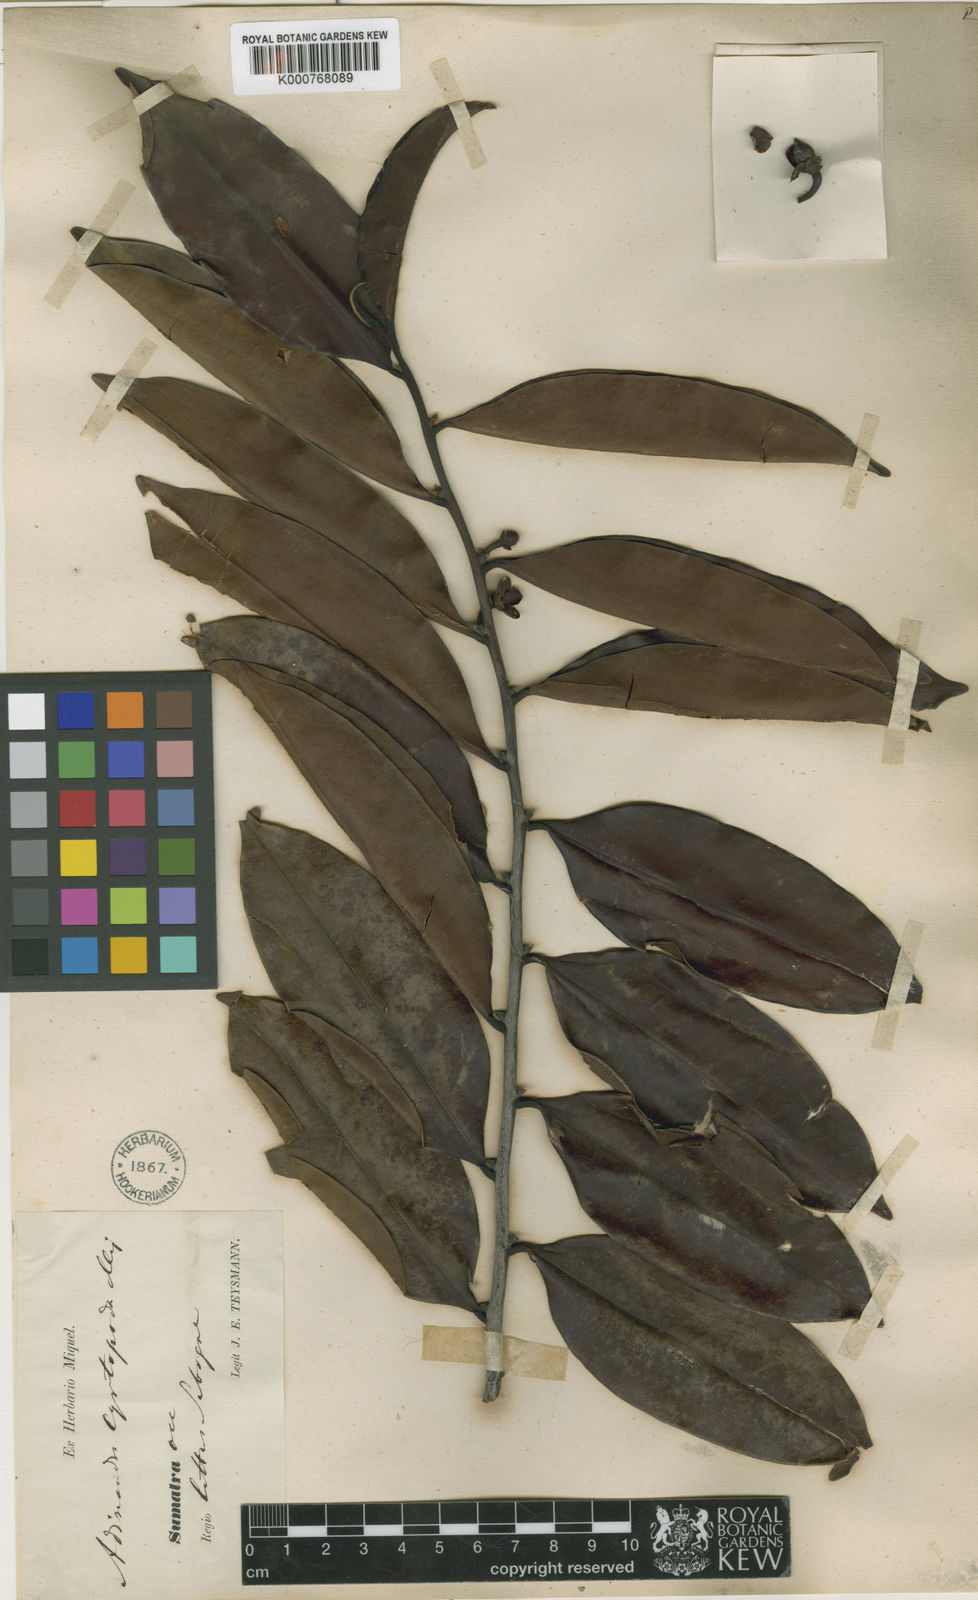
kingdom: Plantae
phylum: Tracheophyta
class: Magnoliopsida
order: Ericales
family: Pentaphylacaceae
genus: Adinandra
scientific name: Adinandra dumosa
